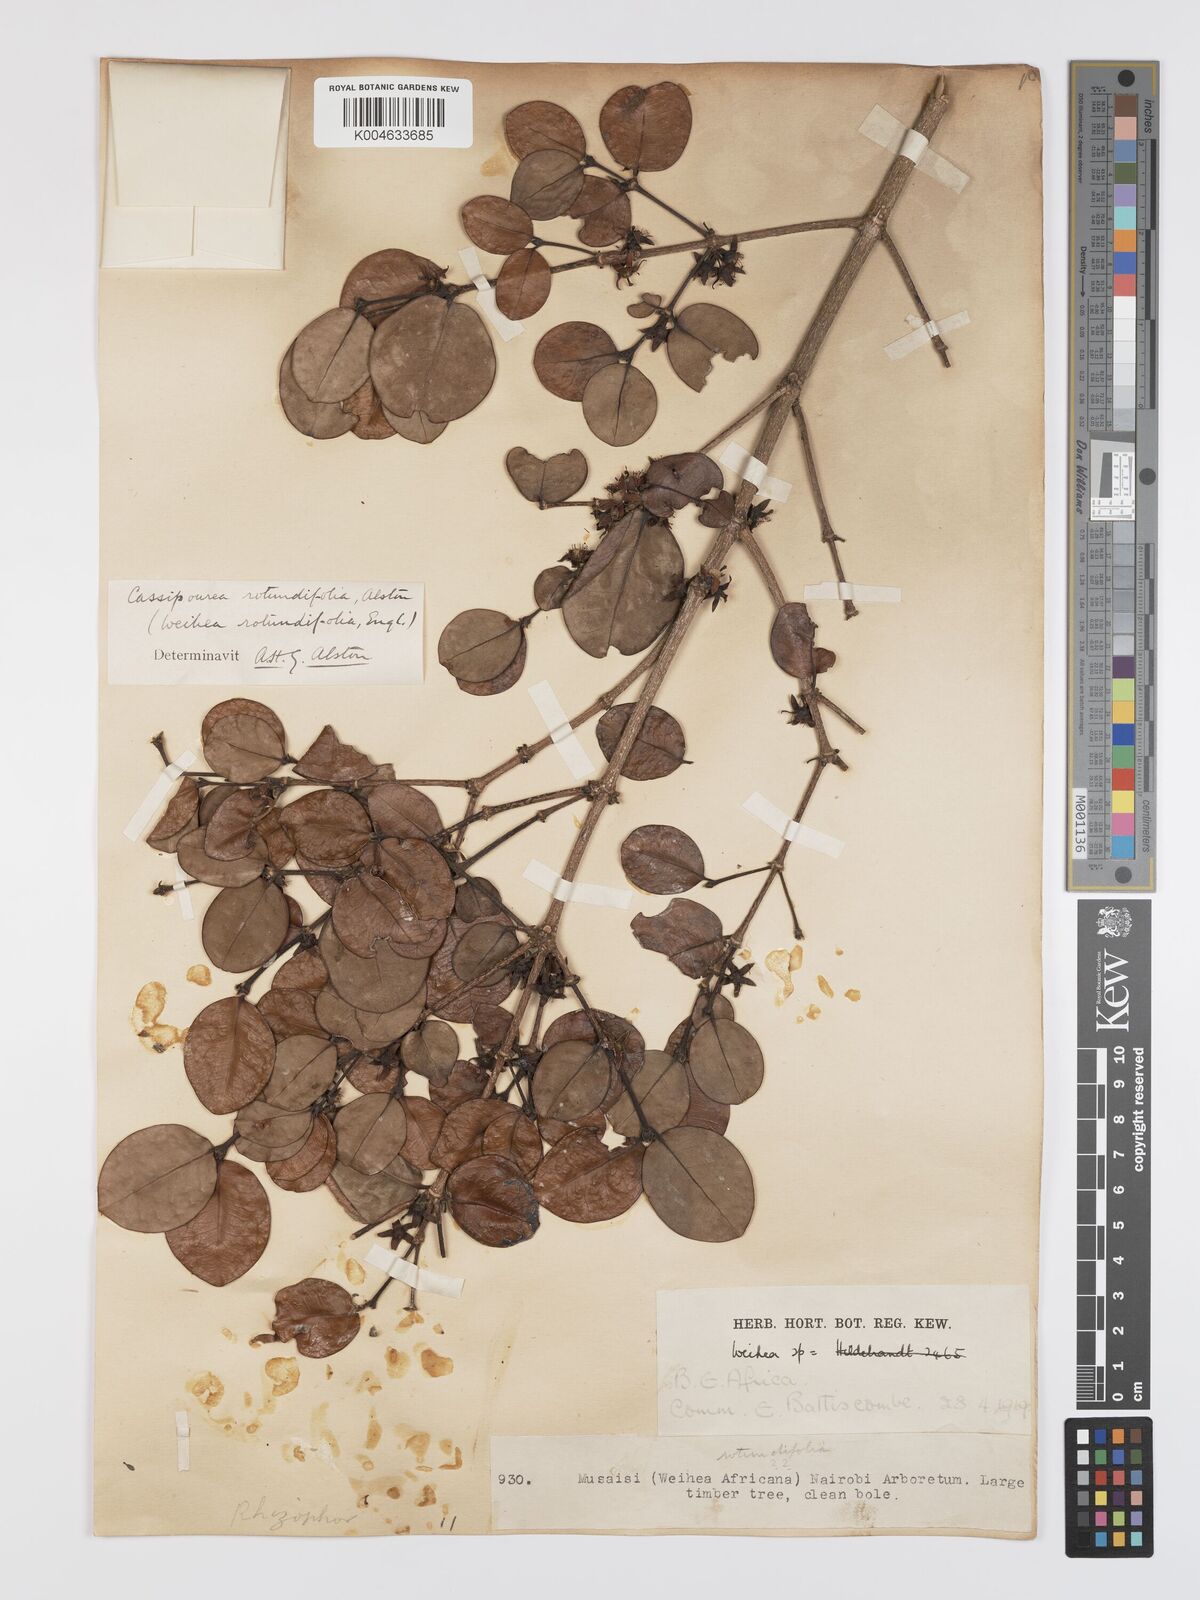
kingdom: Plantae
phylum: Tracheophyta
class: Magnoliopsida
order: Malpighiales
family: Rhizophoraceae
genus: Cassipourea
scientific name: Cassipourea rotundifolia
